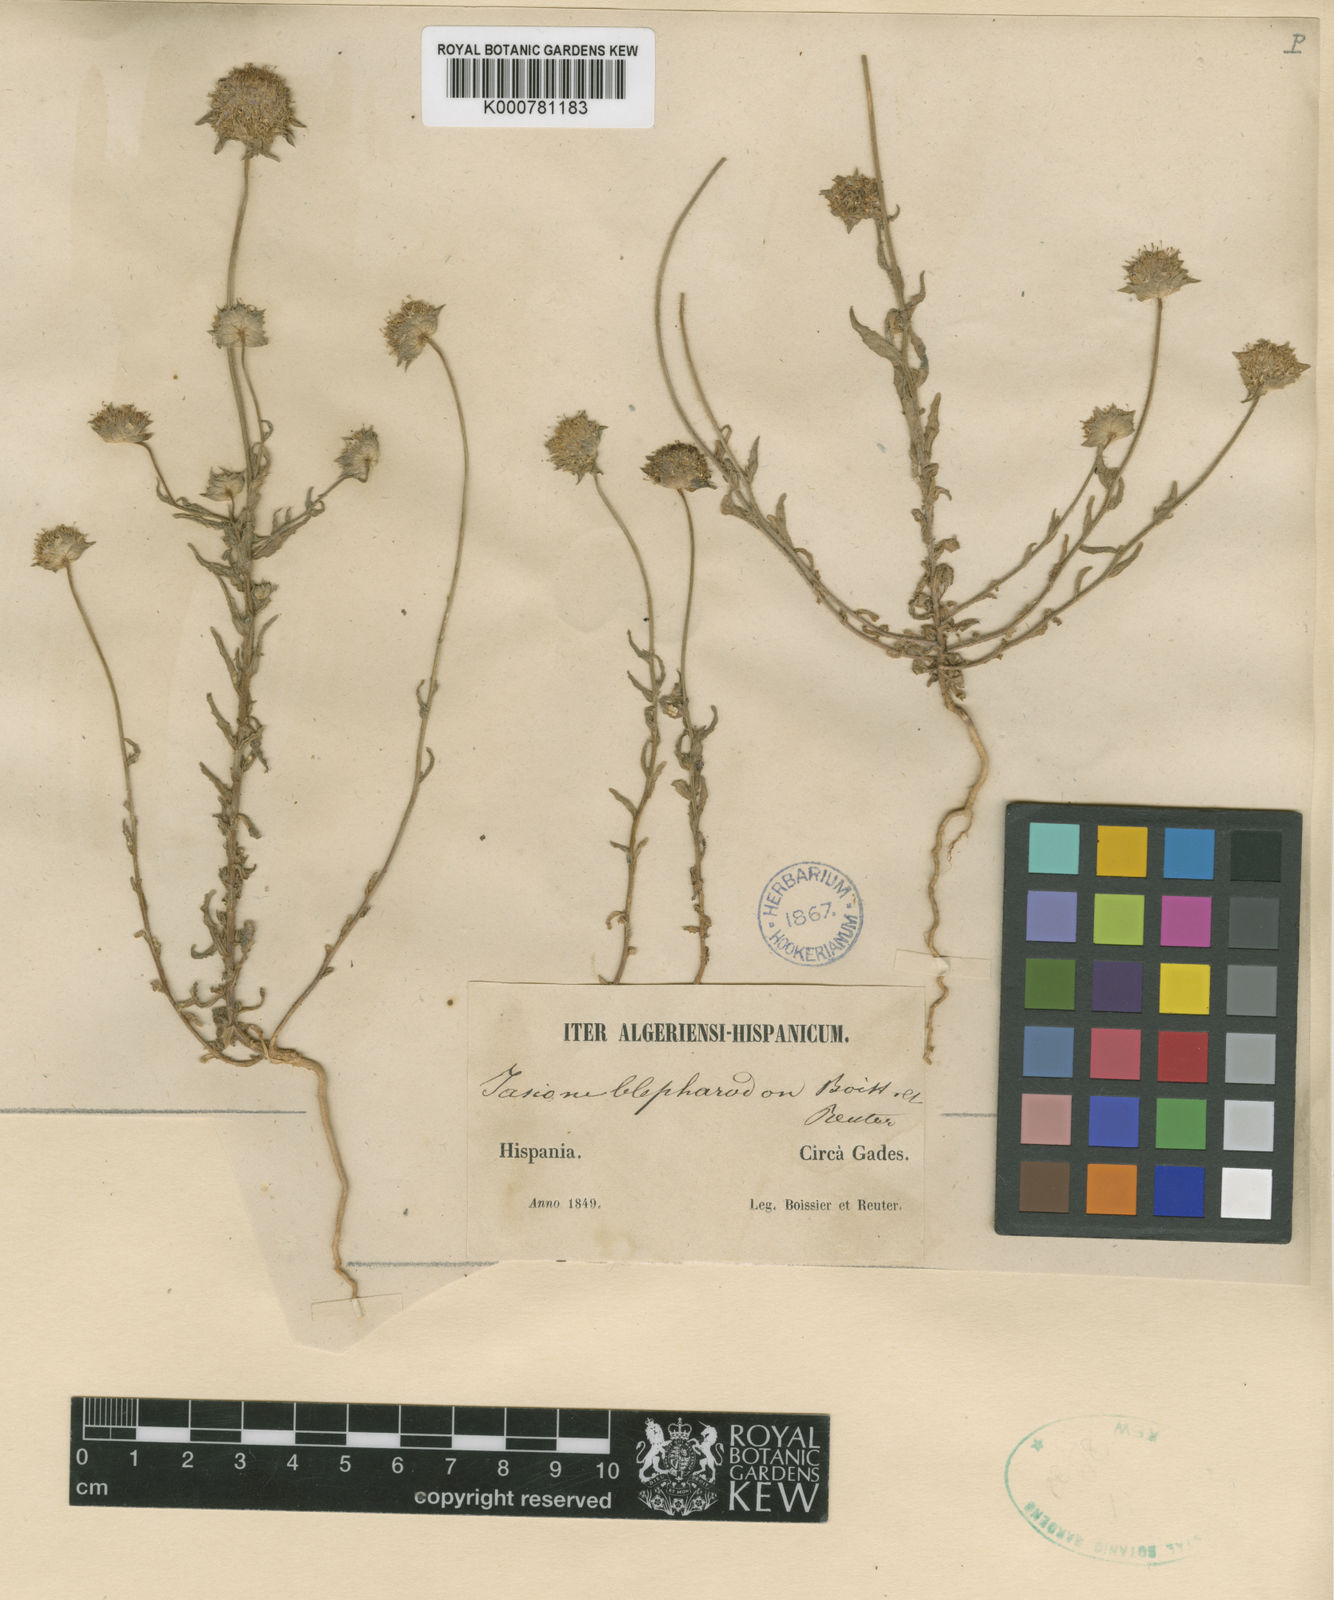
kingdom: Plantae
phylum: Tracheophyta
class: Magnoliopsida
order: Asterales
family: Campanulaceae
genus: Jasione
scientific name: Jasione montana
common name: Sheep's-bit
